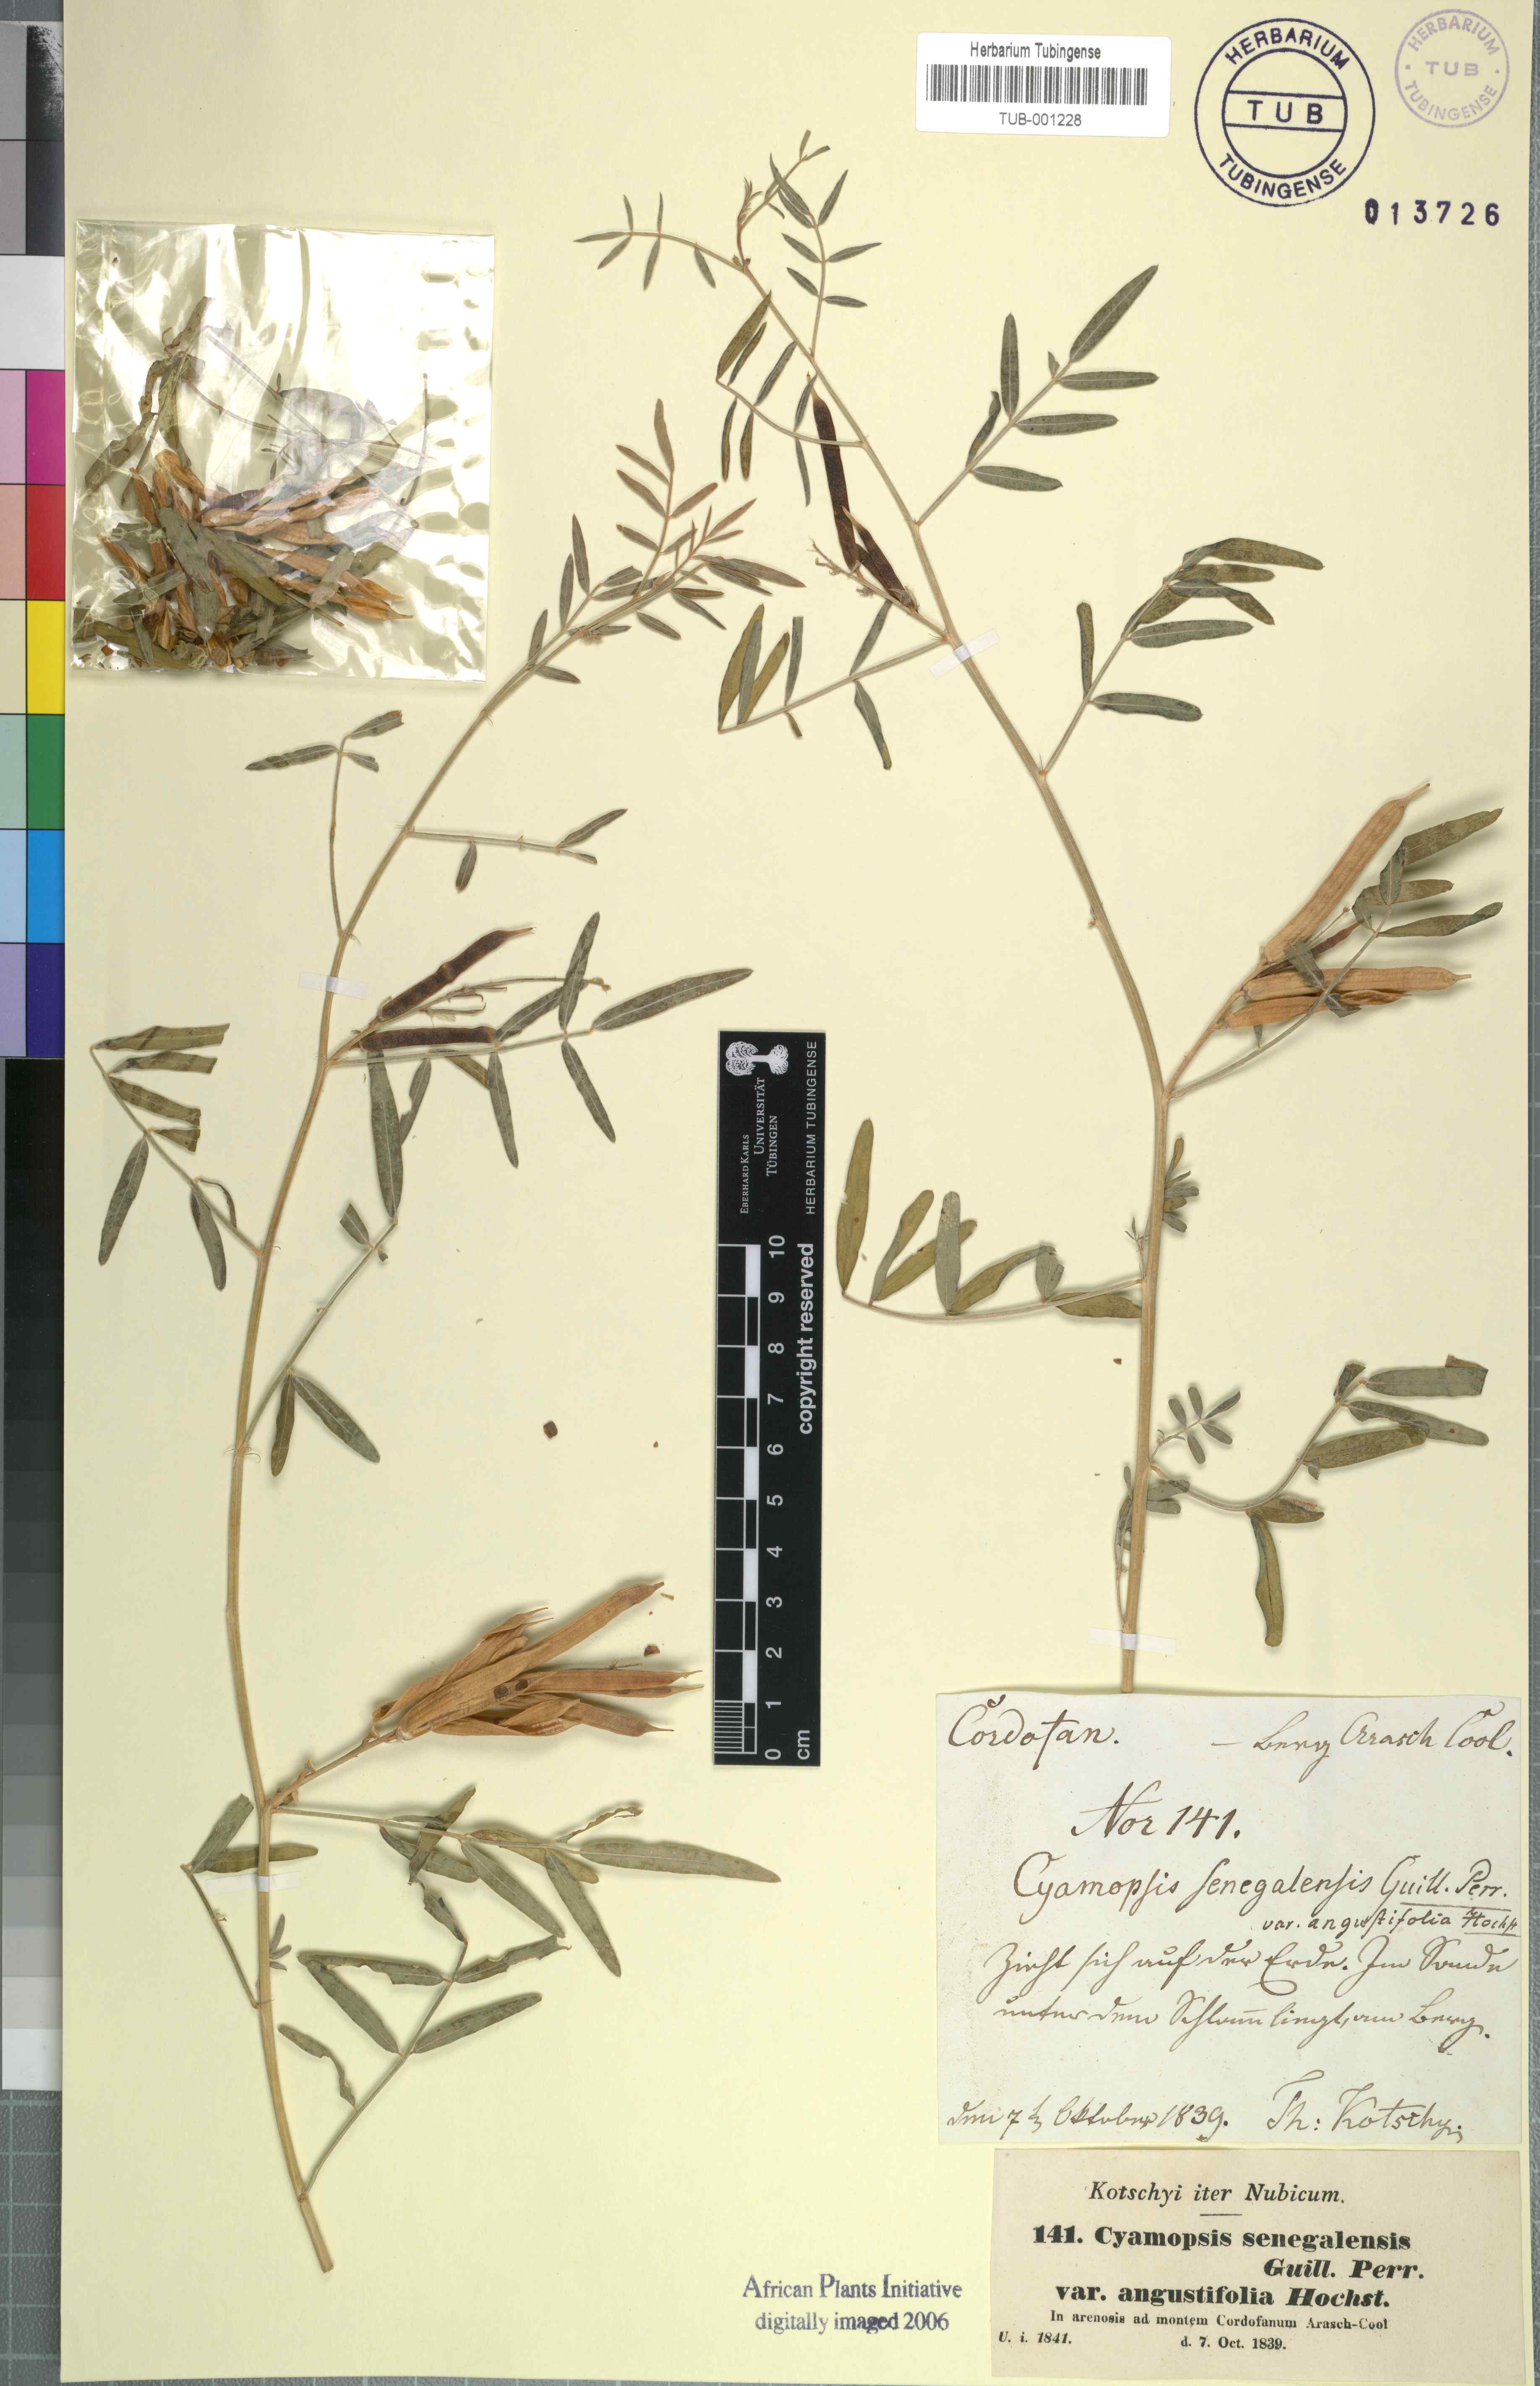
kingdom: Plantae
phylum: Tracheophyta
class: Magnoliopsida
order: Fabales
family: Fabaceae
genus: Cyamopsis
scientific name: Cyamopsis senegalensis
